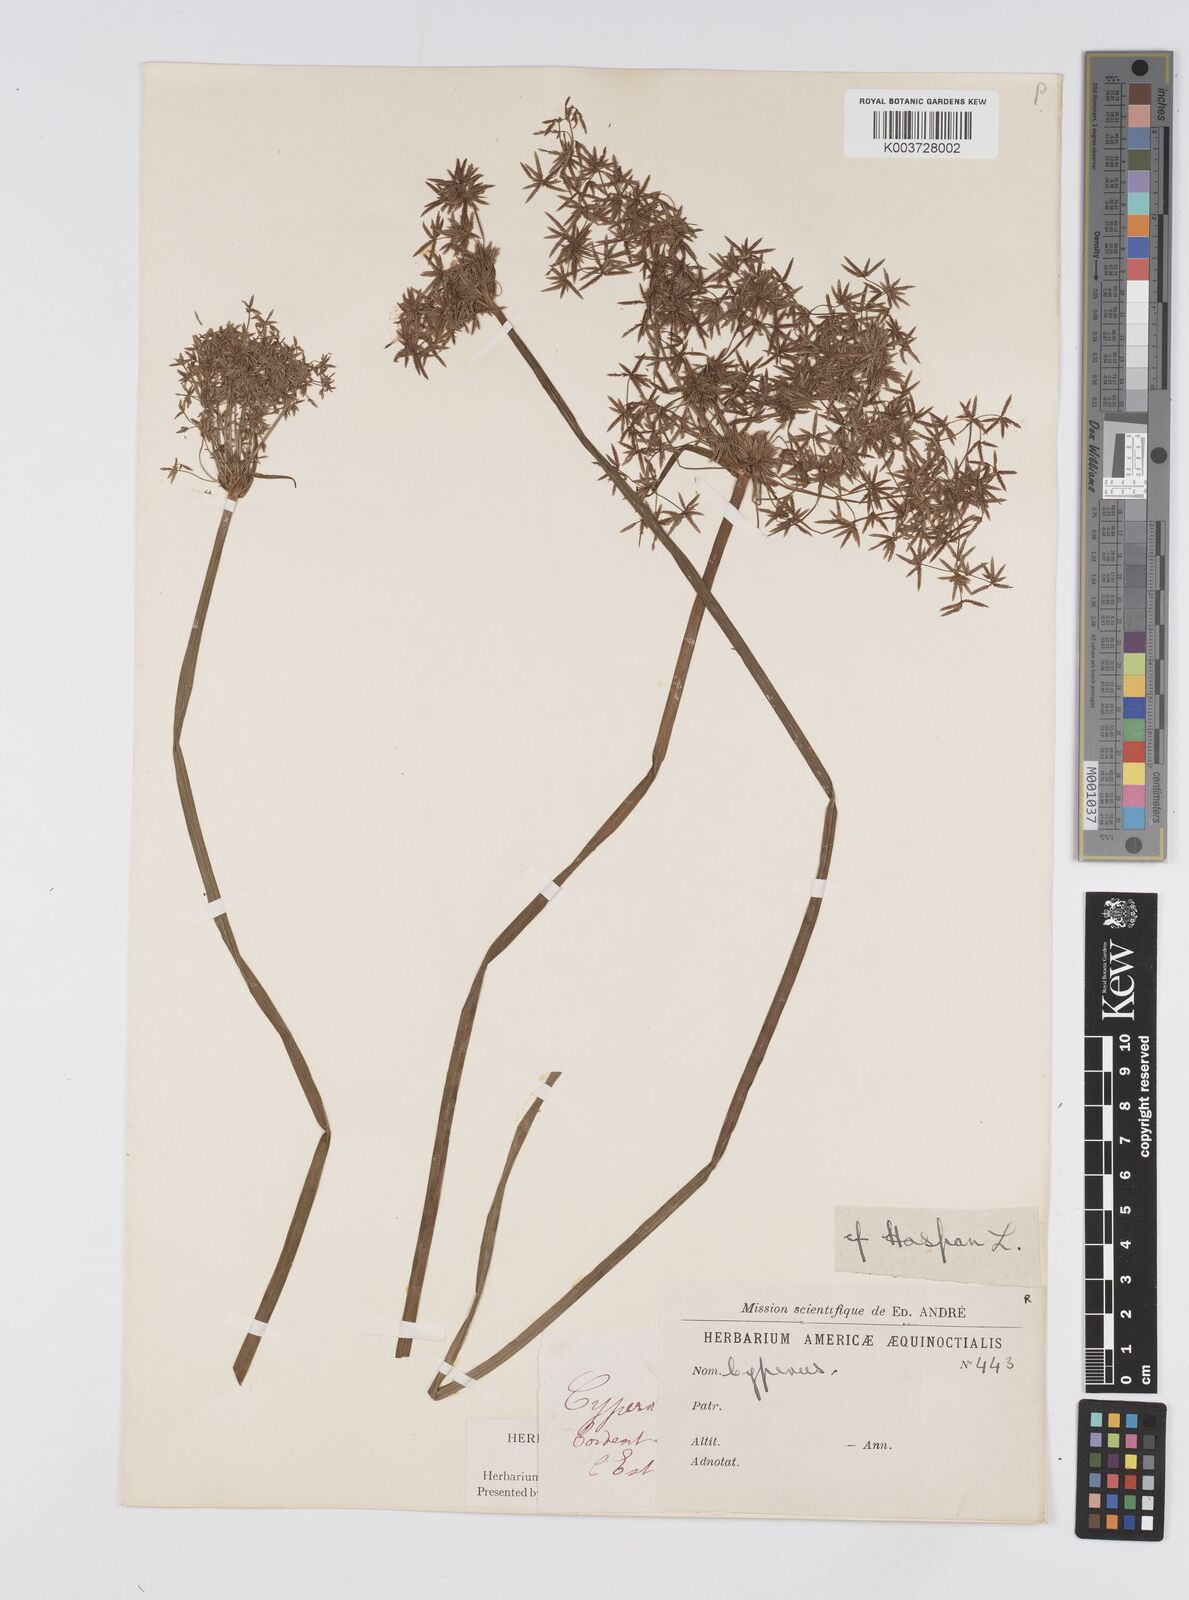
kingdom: Plantae
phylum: Tracheophyta
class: Liliopsida
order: Poales
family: Cyperaceae
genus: Cyperus
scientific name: Cyperus haspan
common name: Haspan flatsedge
